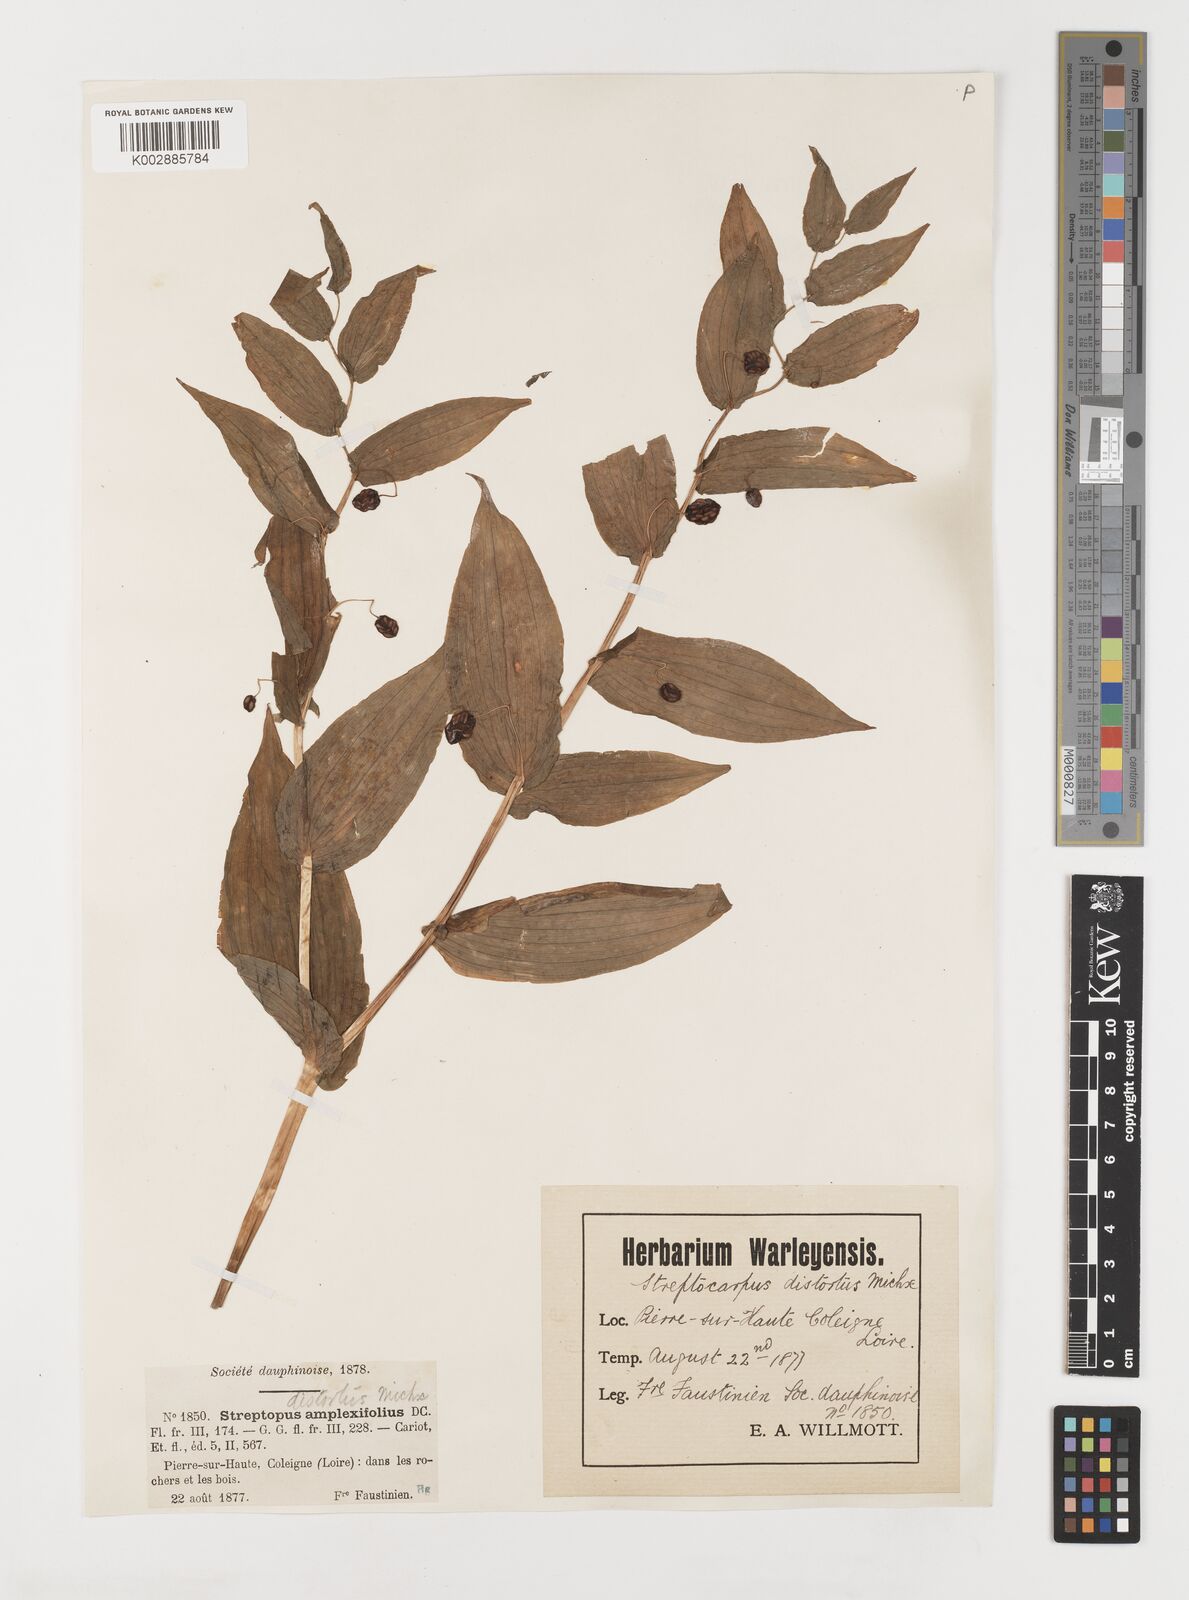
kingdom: Plantae
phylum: Tracheophyta
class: Liliopsida
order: Liliales
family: Liliaceae
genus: Streptopus
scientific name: Streptopus amplexifolius
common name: Clasp twisted stalk
